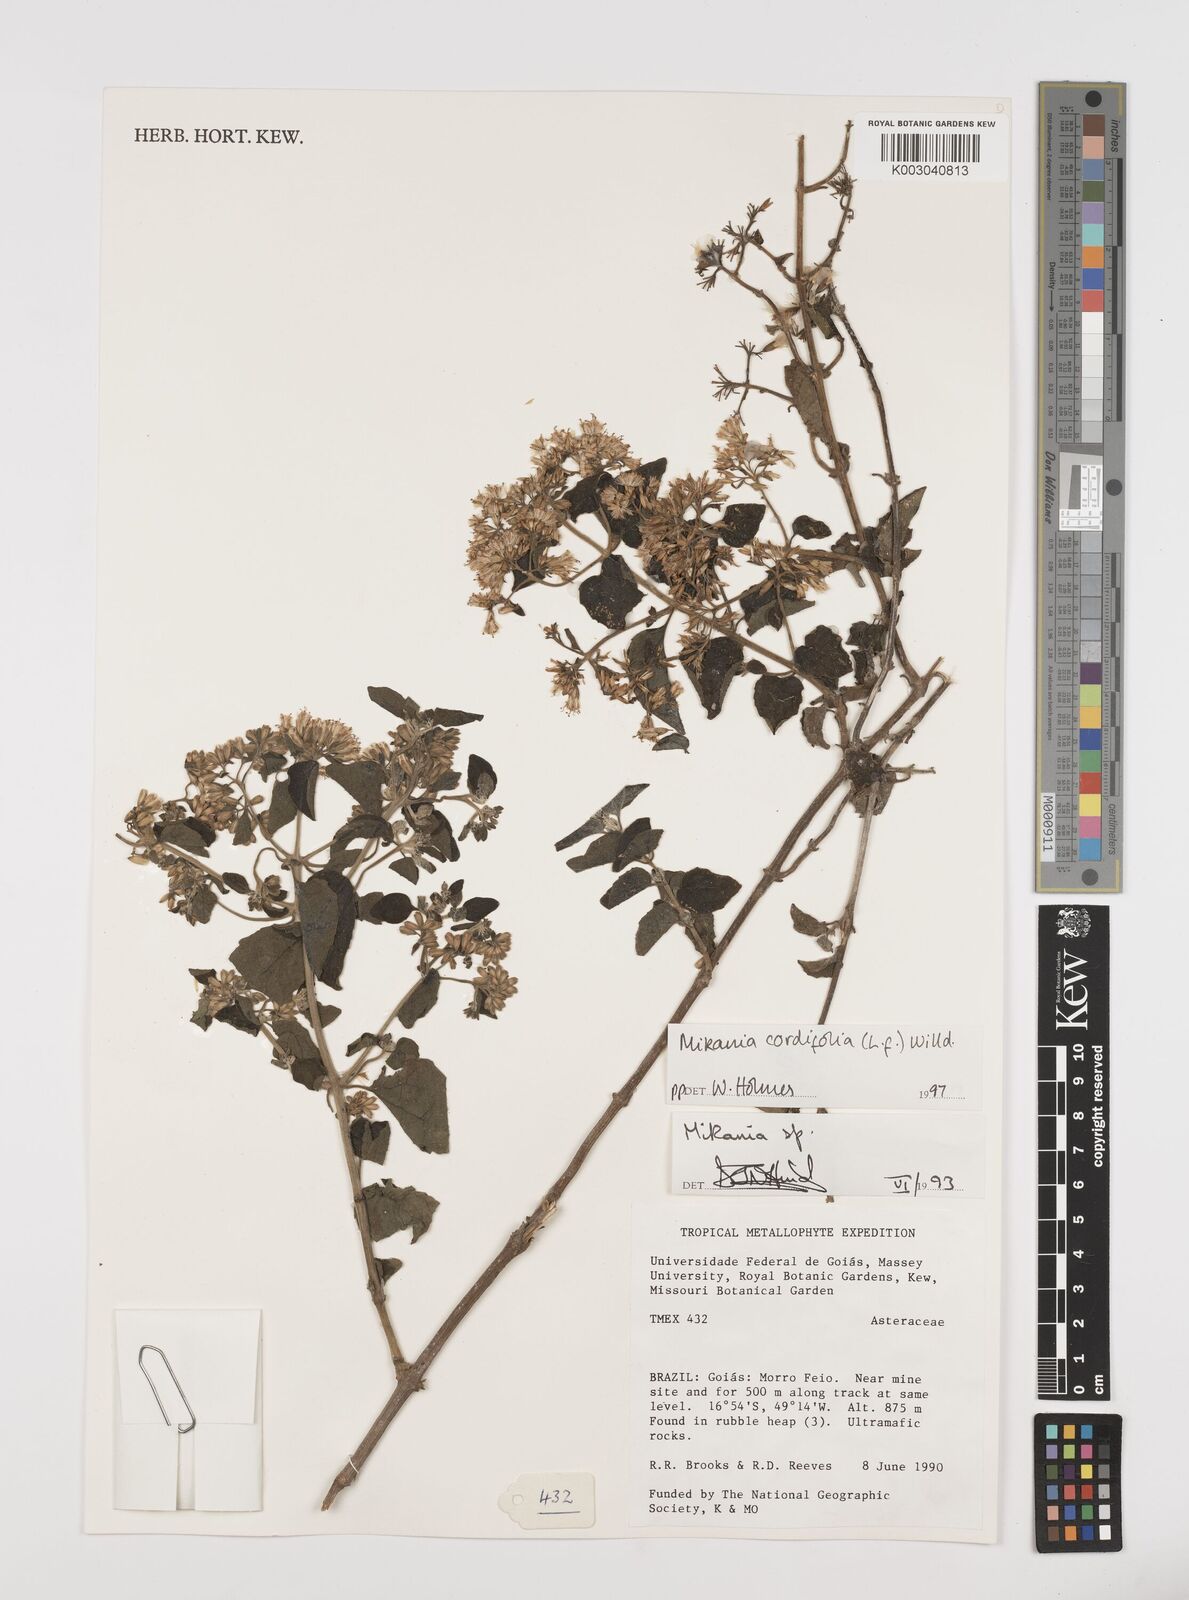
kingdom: Plantae
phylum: Tracheophyta
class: Magnoliopsida
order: Asterales
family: Asteraceae
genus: Mikania
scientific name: Mikania cordifolia
